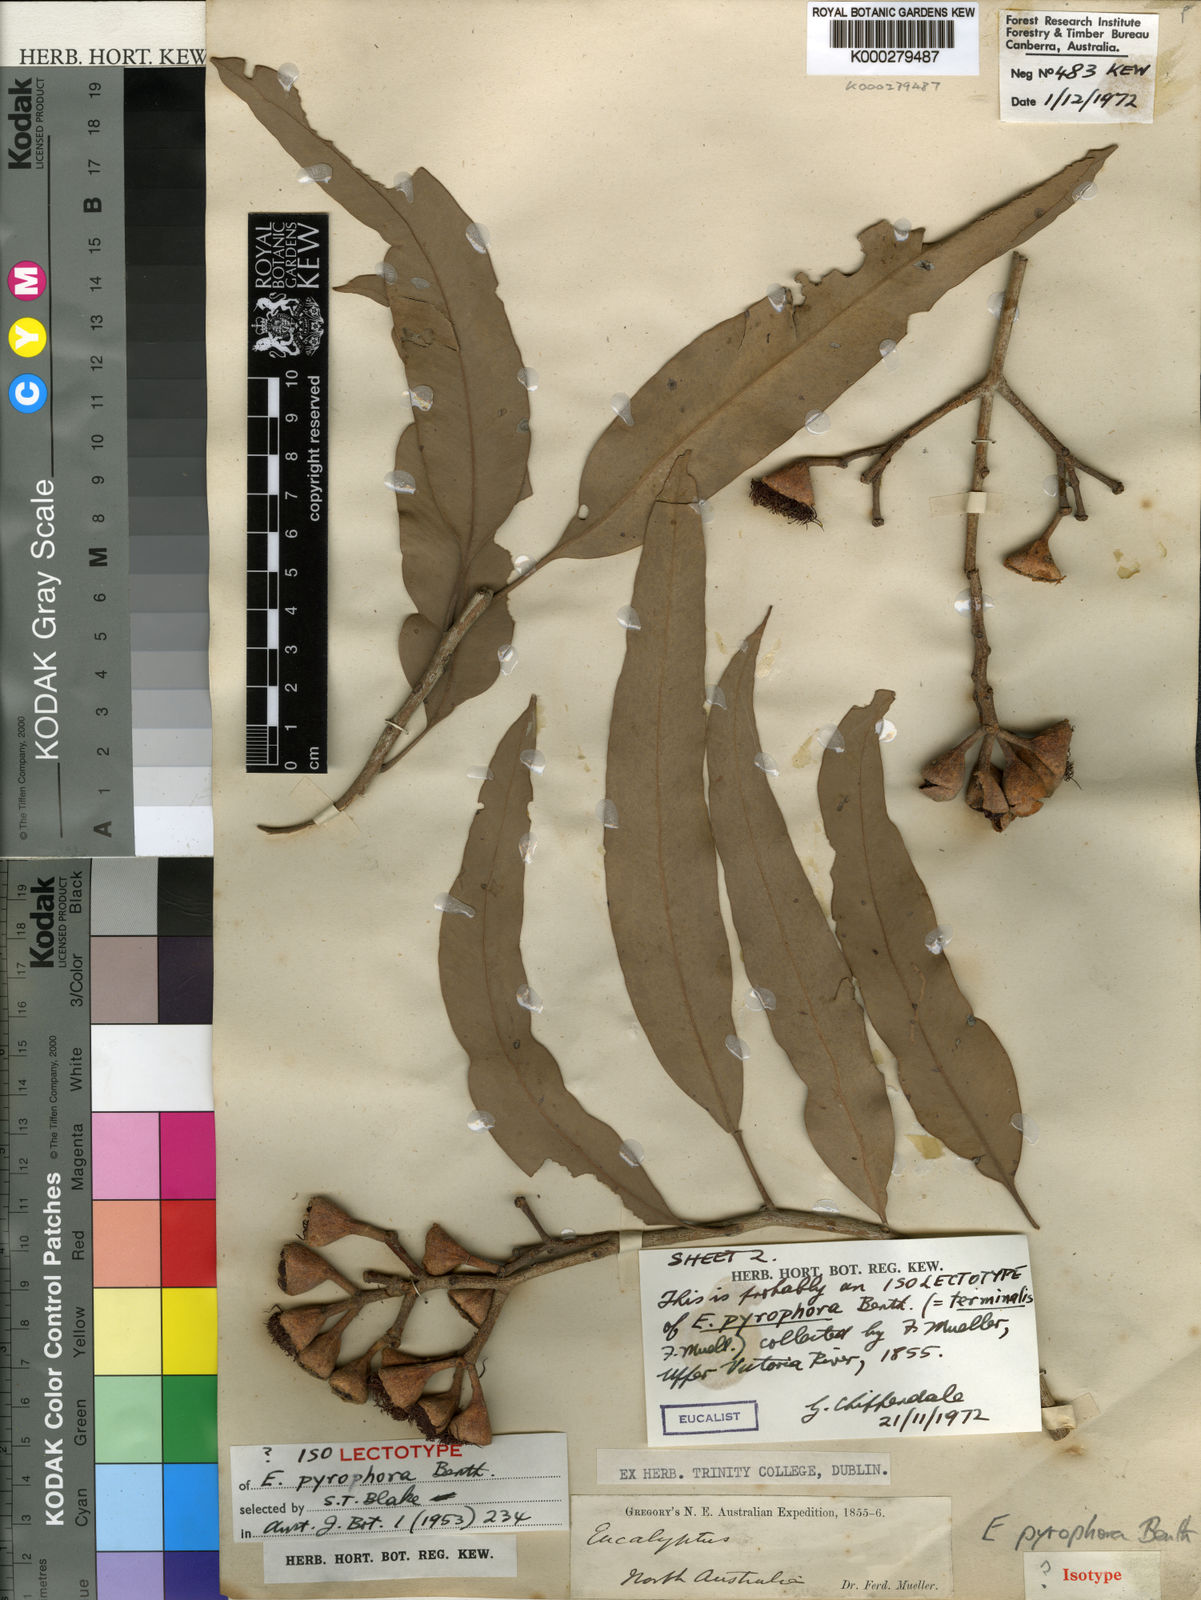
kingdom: Plantae
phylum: Tracheophyta
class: Magnoliopsida
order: Myrtales
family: Myrtaceae
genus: Corymbia
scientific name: Corymbia terminalis
